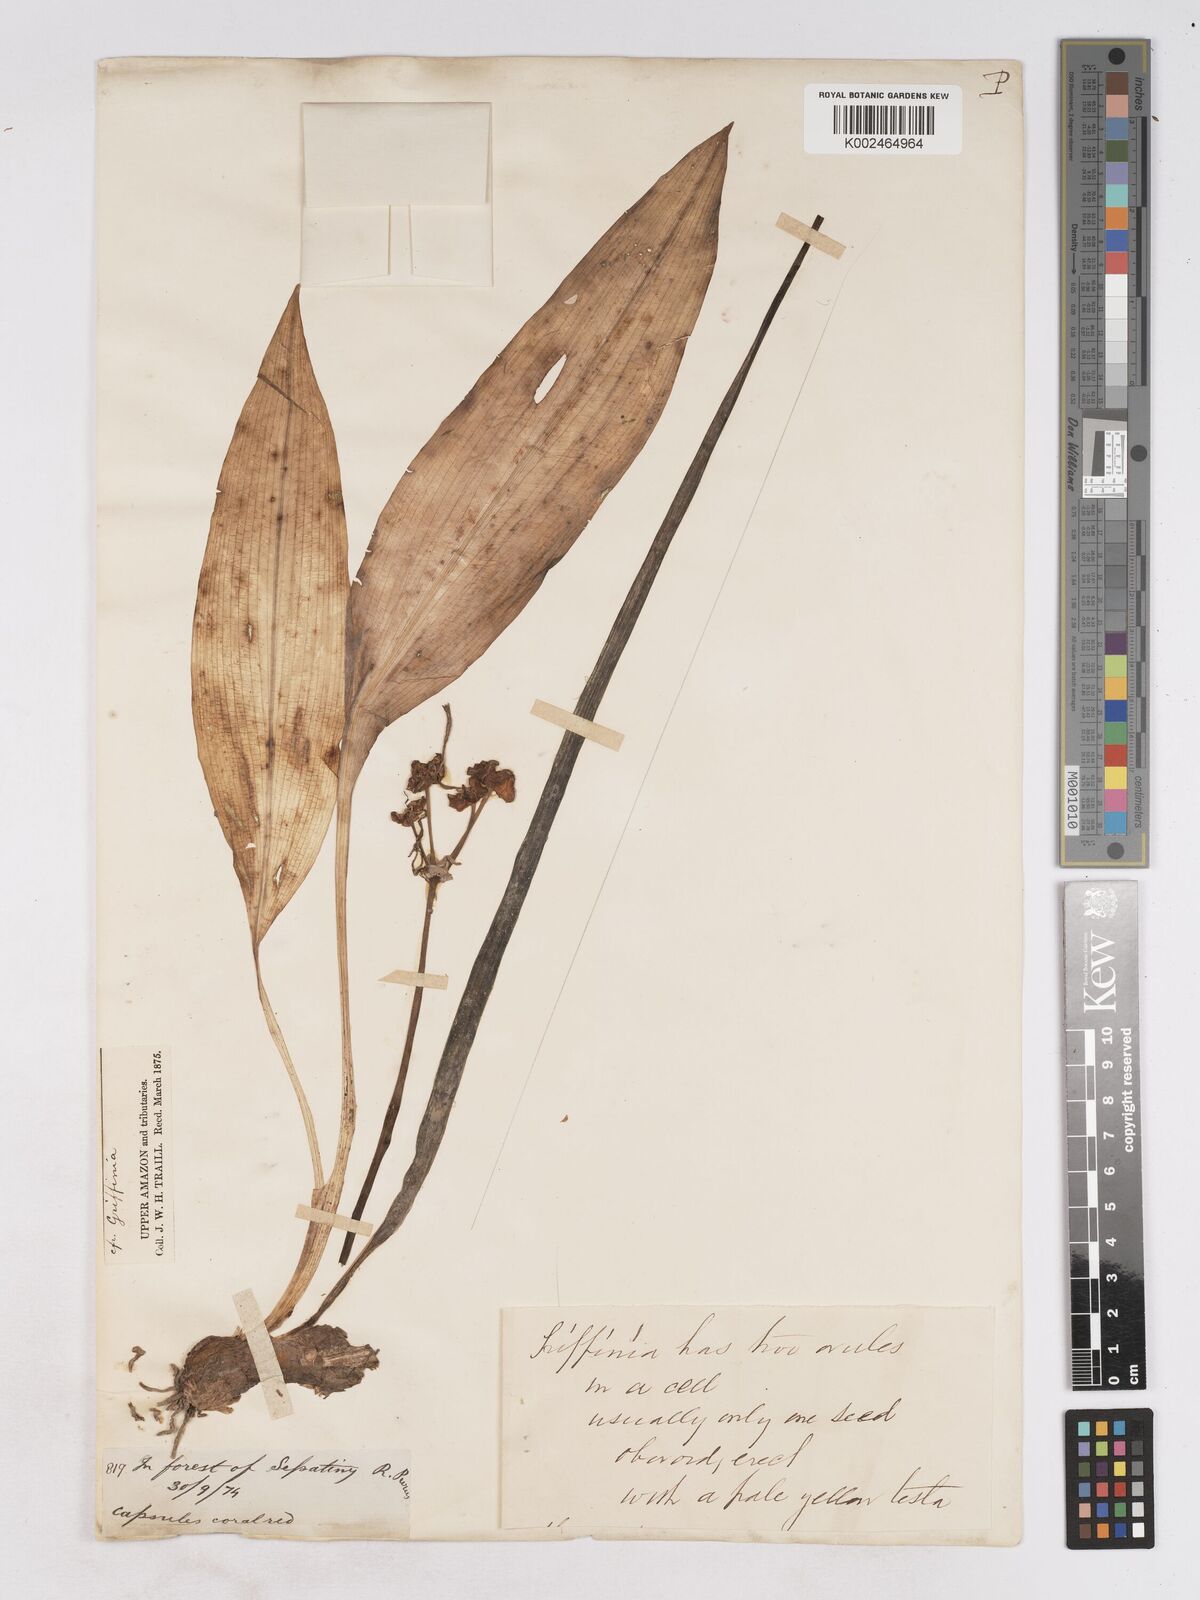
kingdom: Plantae
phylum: Tracheophyta
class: Liliopsida
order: Asparagales
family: Amaryllidaceae
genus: Zephyranthes
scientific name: Zephyranthes blumenavia
